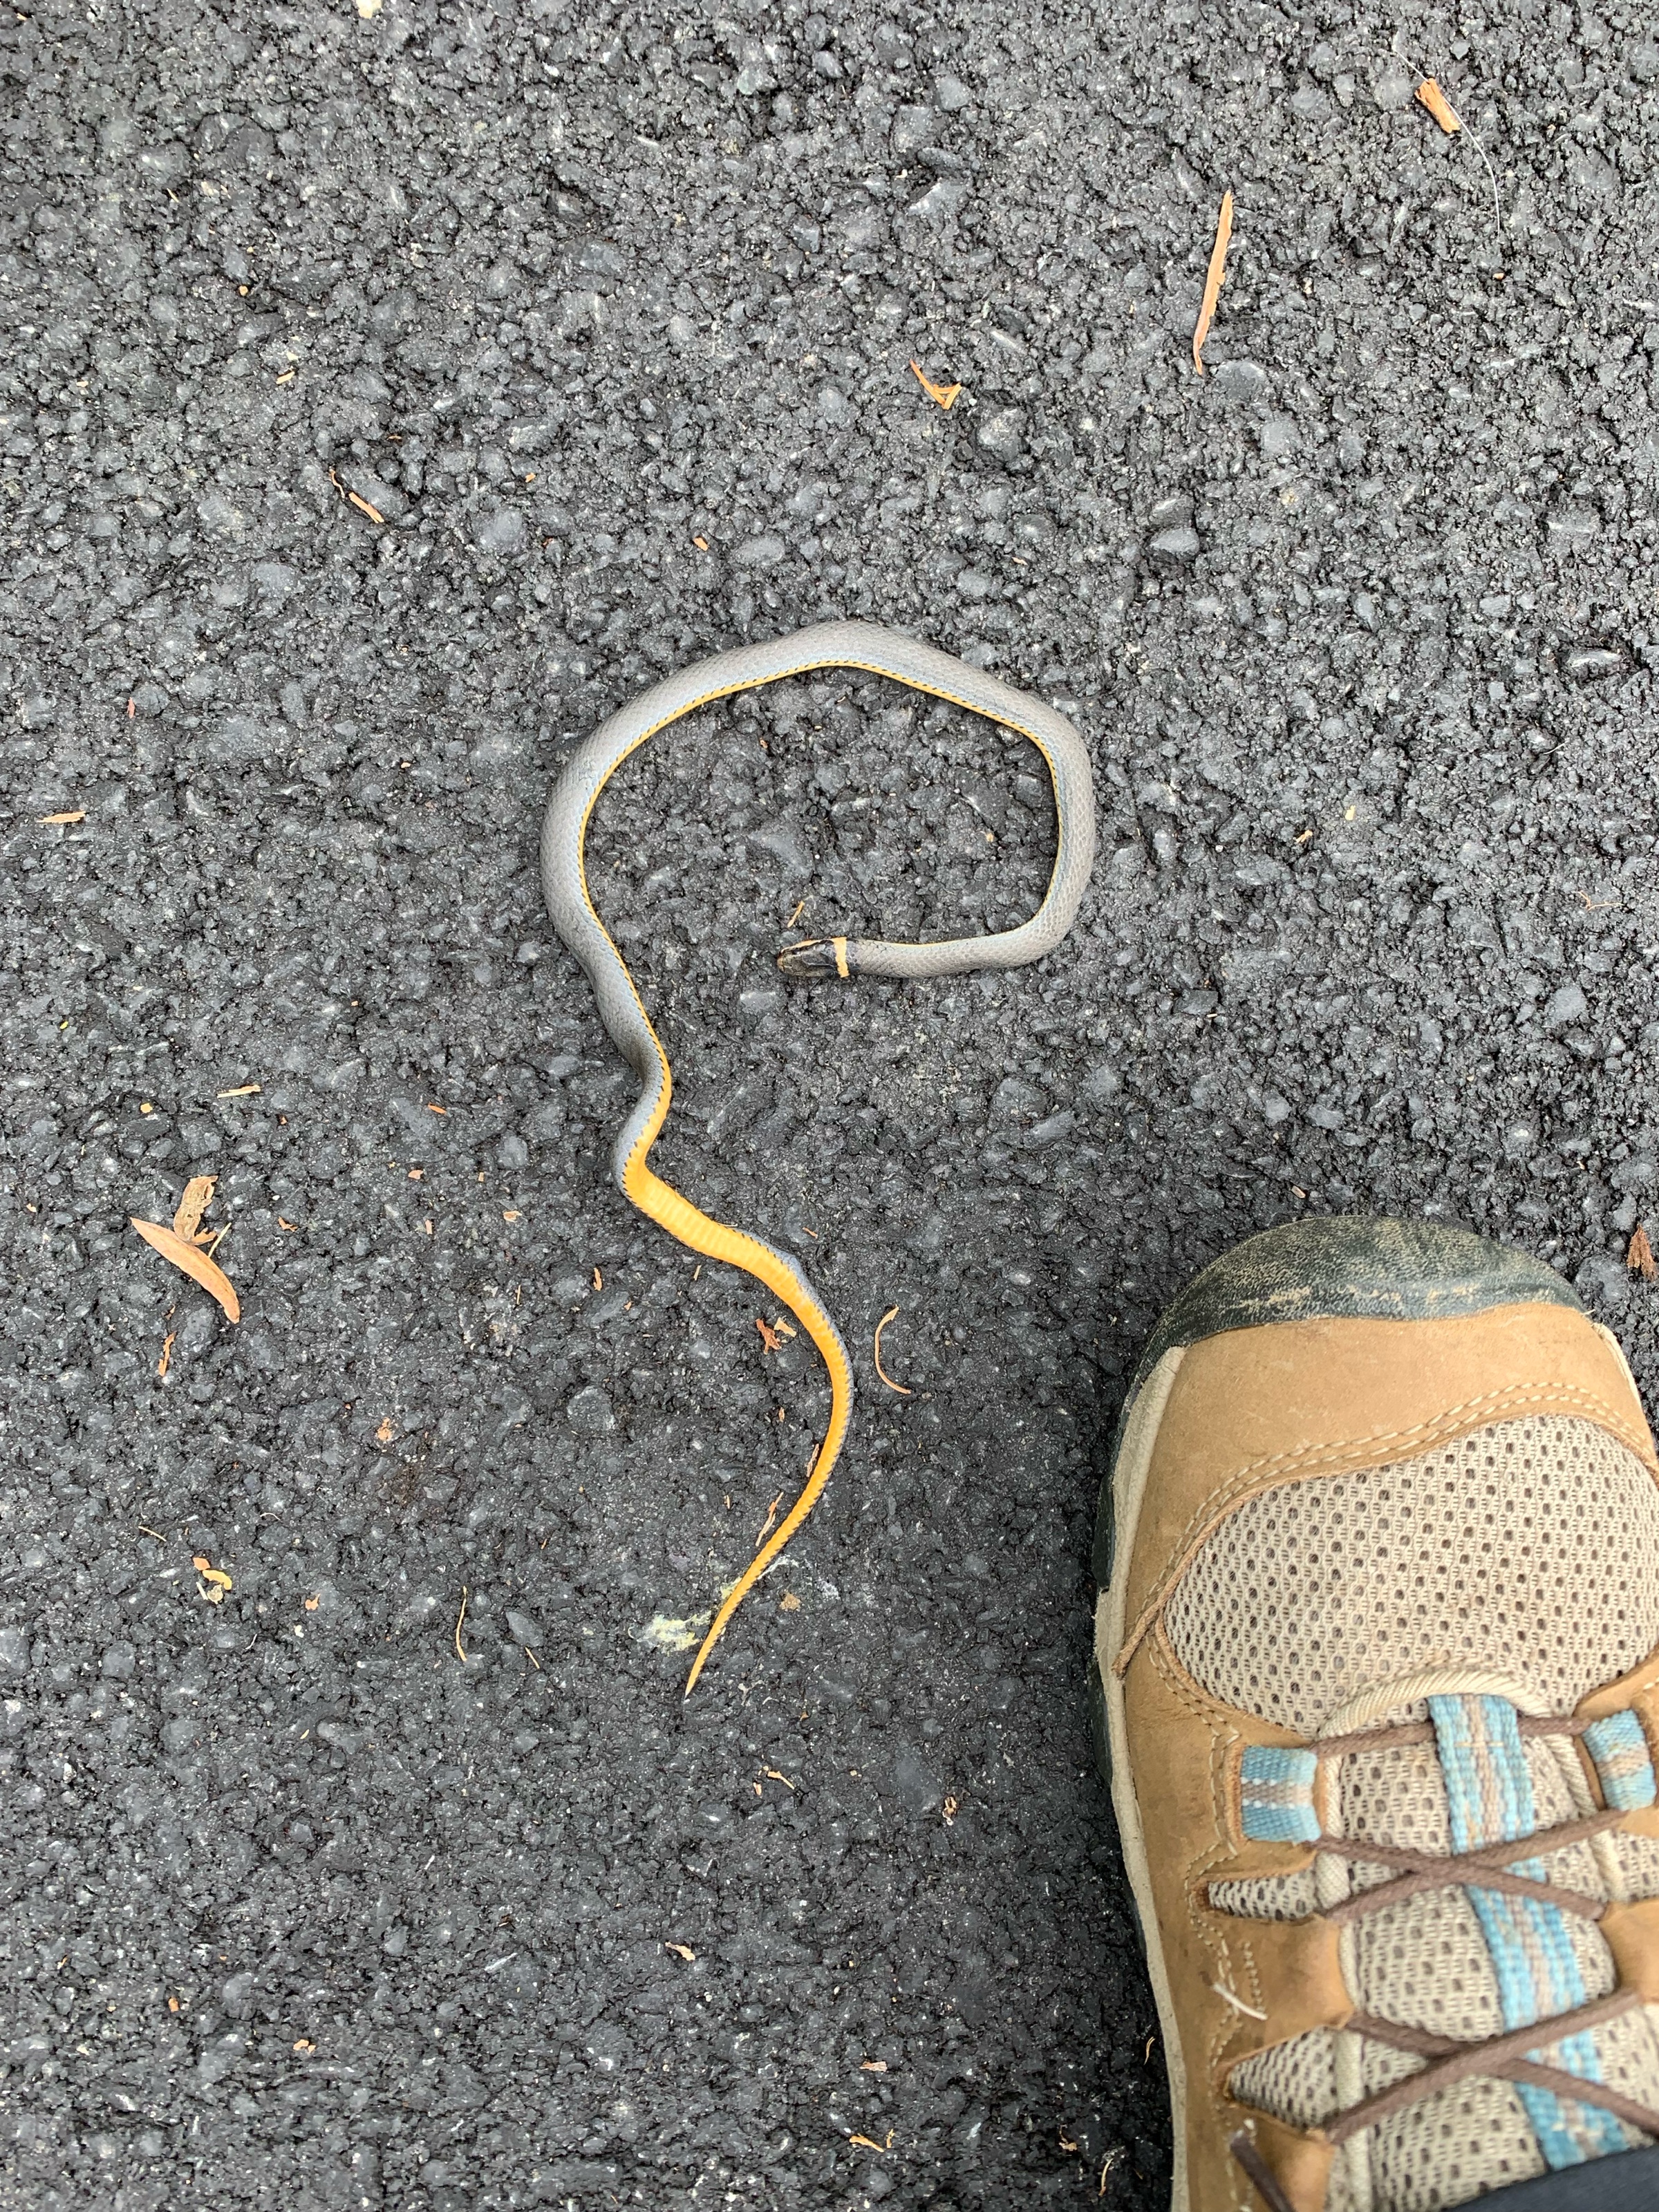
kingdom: Animalia
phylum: Chordata
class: Squamata
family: Colubridae
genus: Diadophis
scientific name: Diadophis
